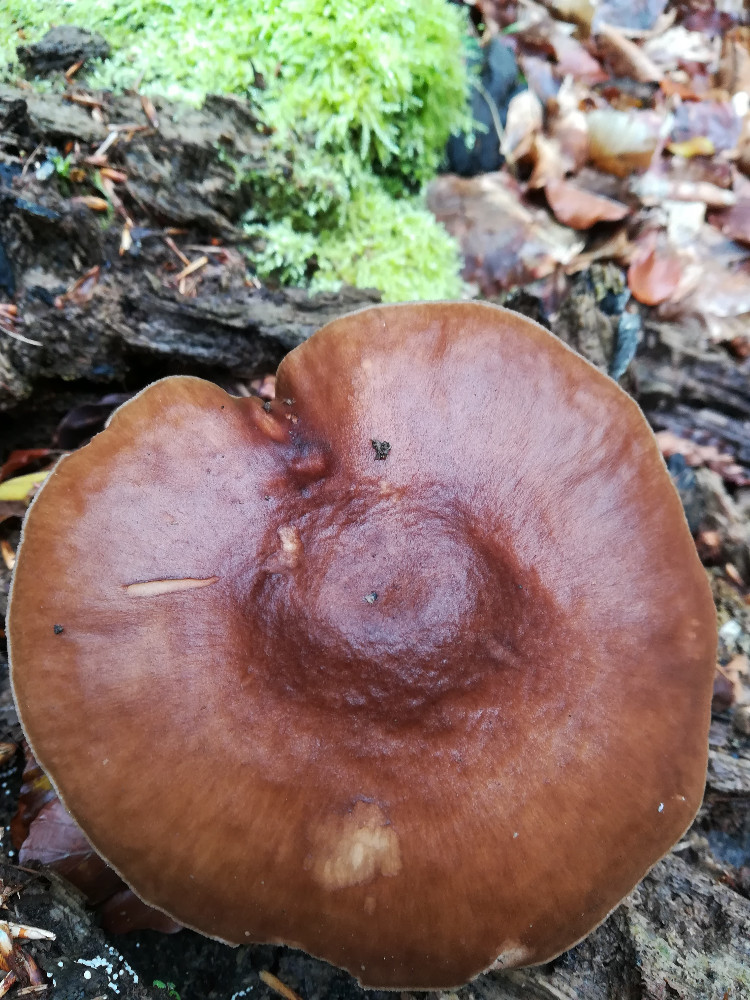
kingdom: Fungi
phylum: Basidiomycota
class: Agaricomycetes
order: Agaricales
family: Pluteaceae
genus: Pluteus
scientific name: Pluteus cervinus
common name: sodfarvet skærmhat
